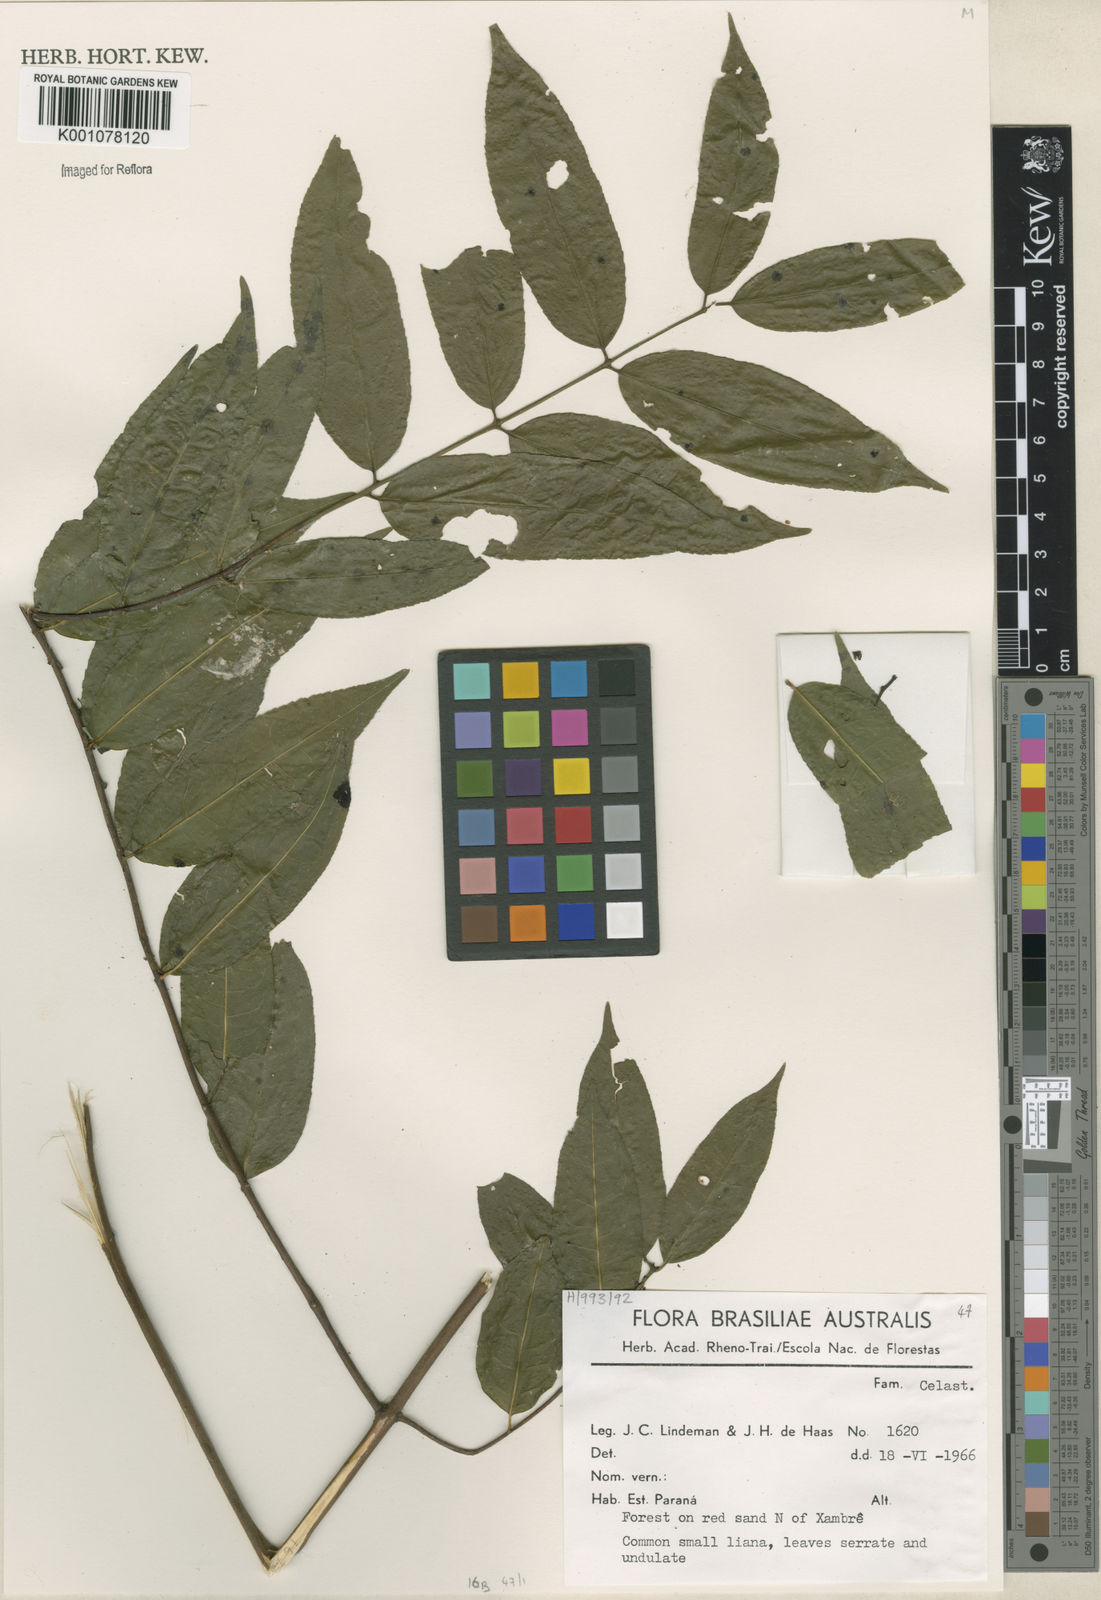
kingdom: Plantae
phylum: Tracheophyta
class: Magnoliopsida
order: Celastrales
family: Celastraceae
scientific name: Celastraceae
